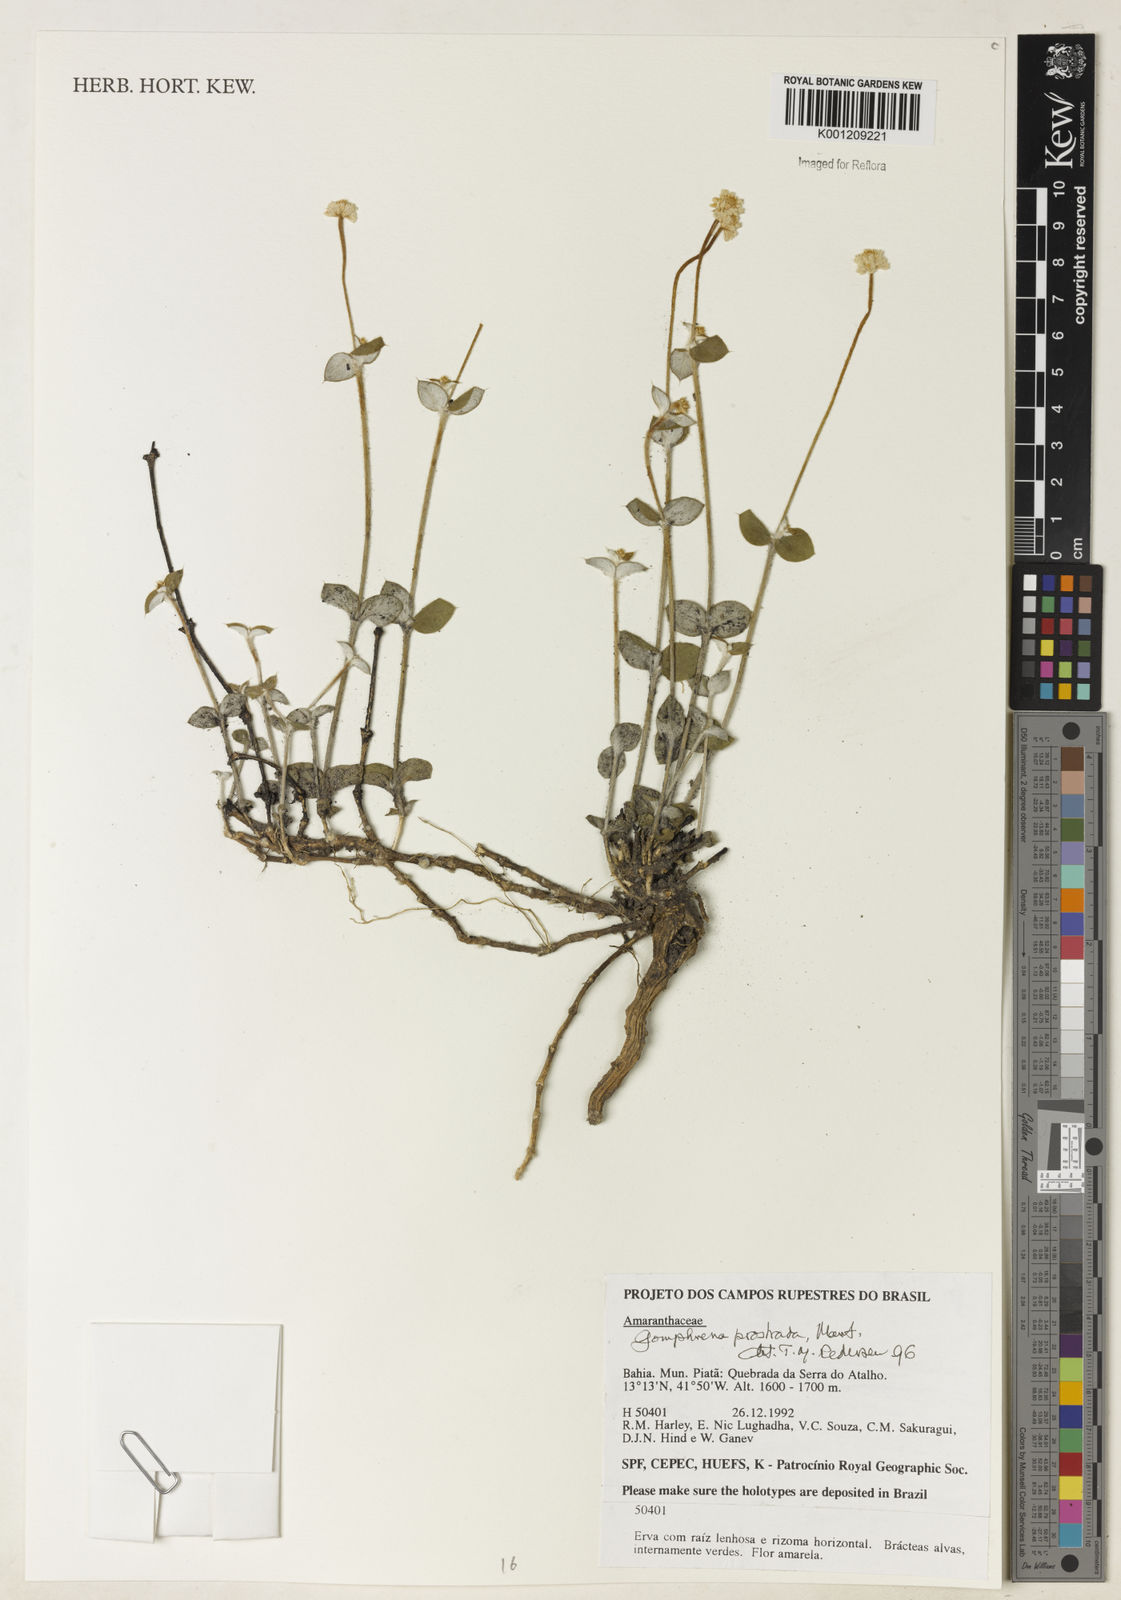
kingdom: Plantae
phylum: Tracheophyta
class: Magnoliopsida
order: Caryophyllales
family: Amaranthaceae
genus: Gomphrena
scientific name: Gomphrena prostrata
